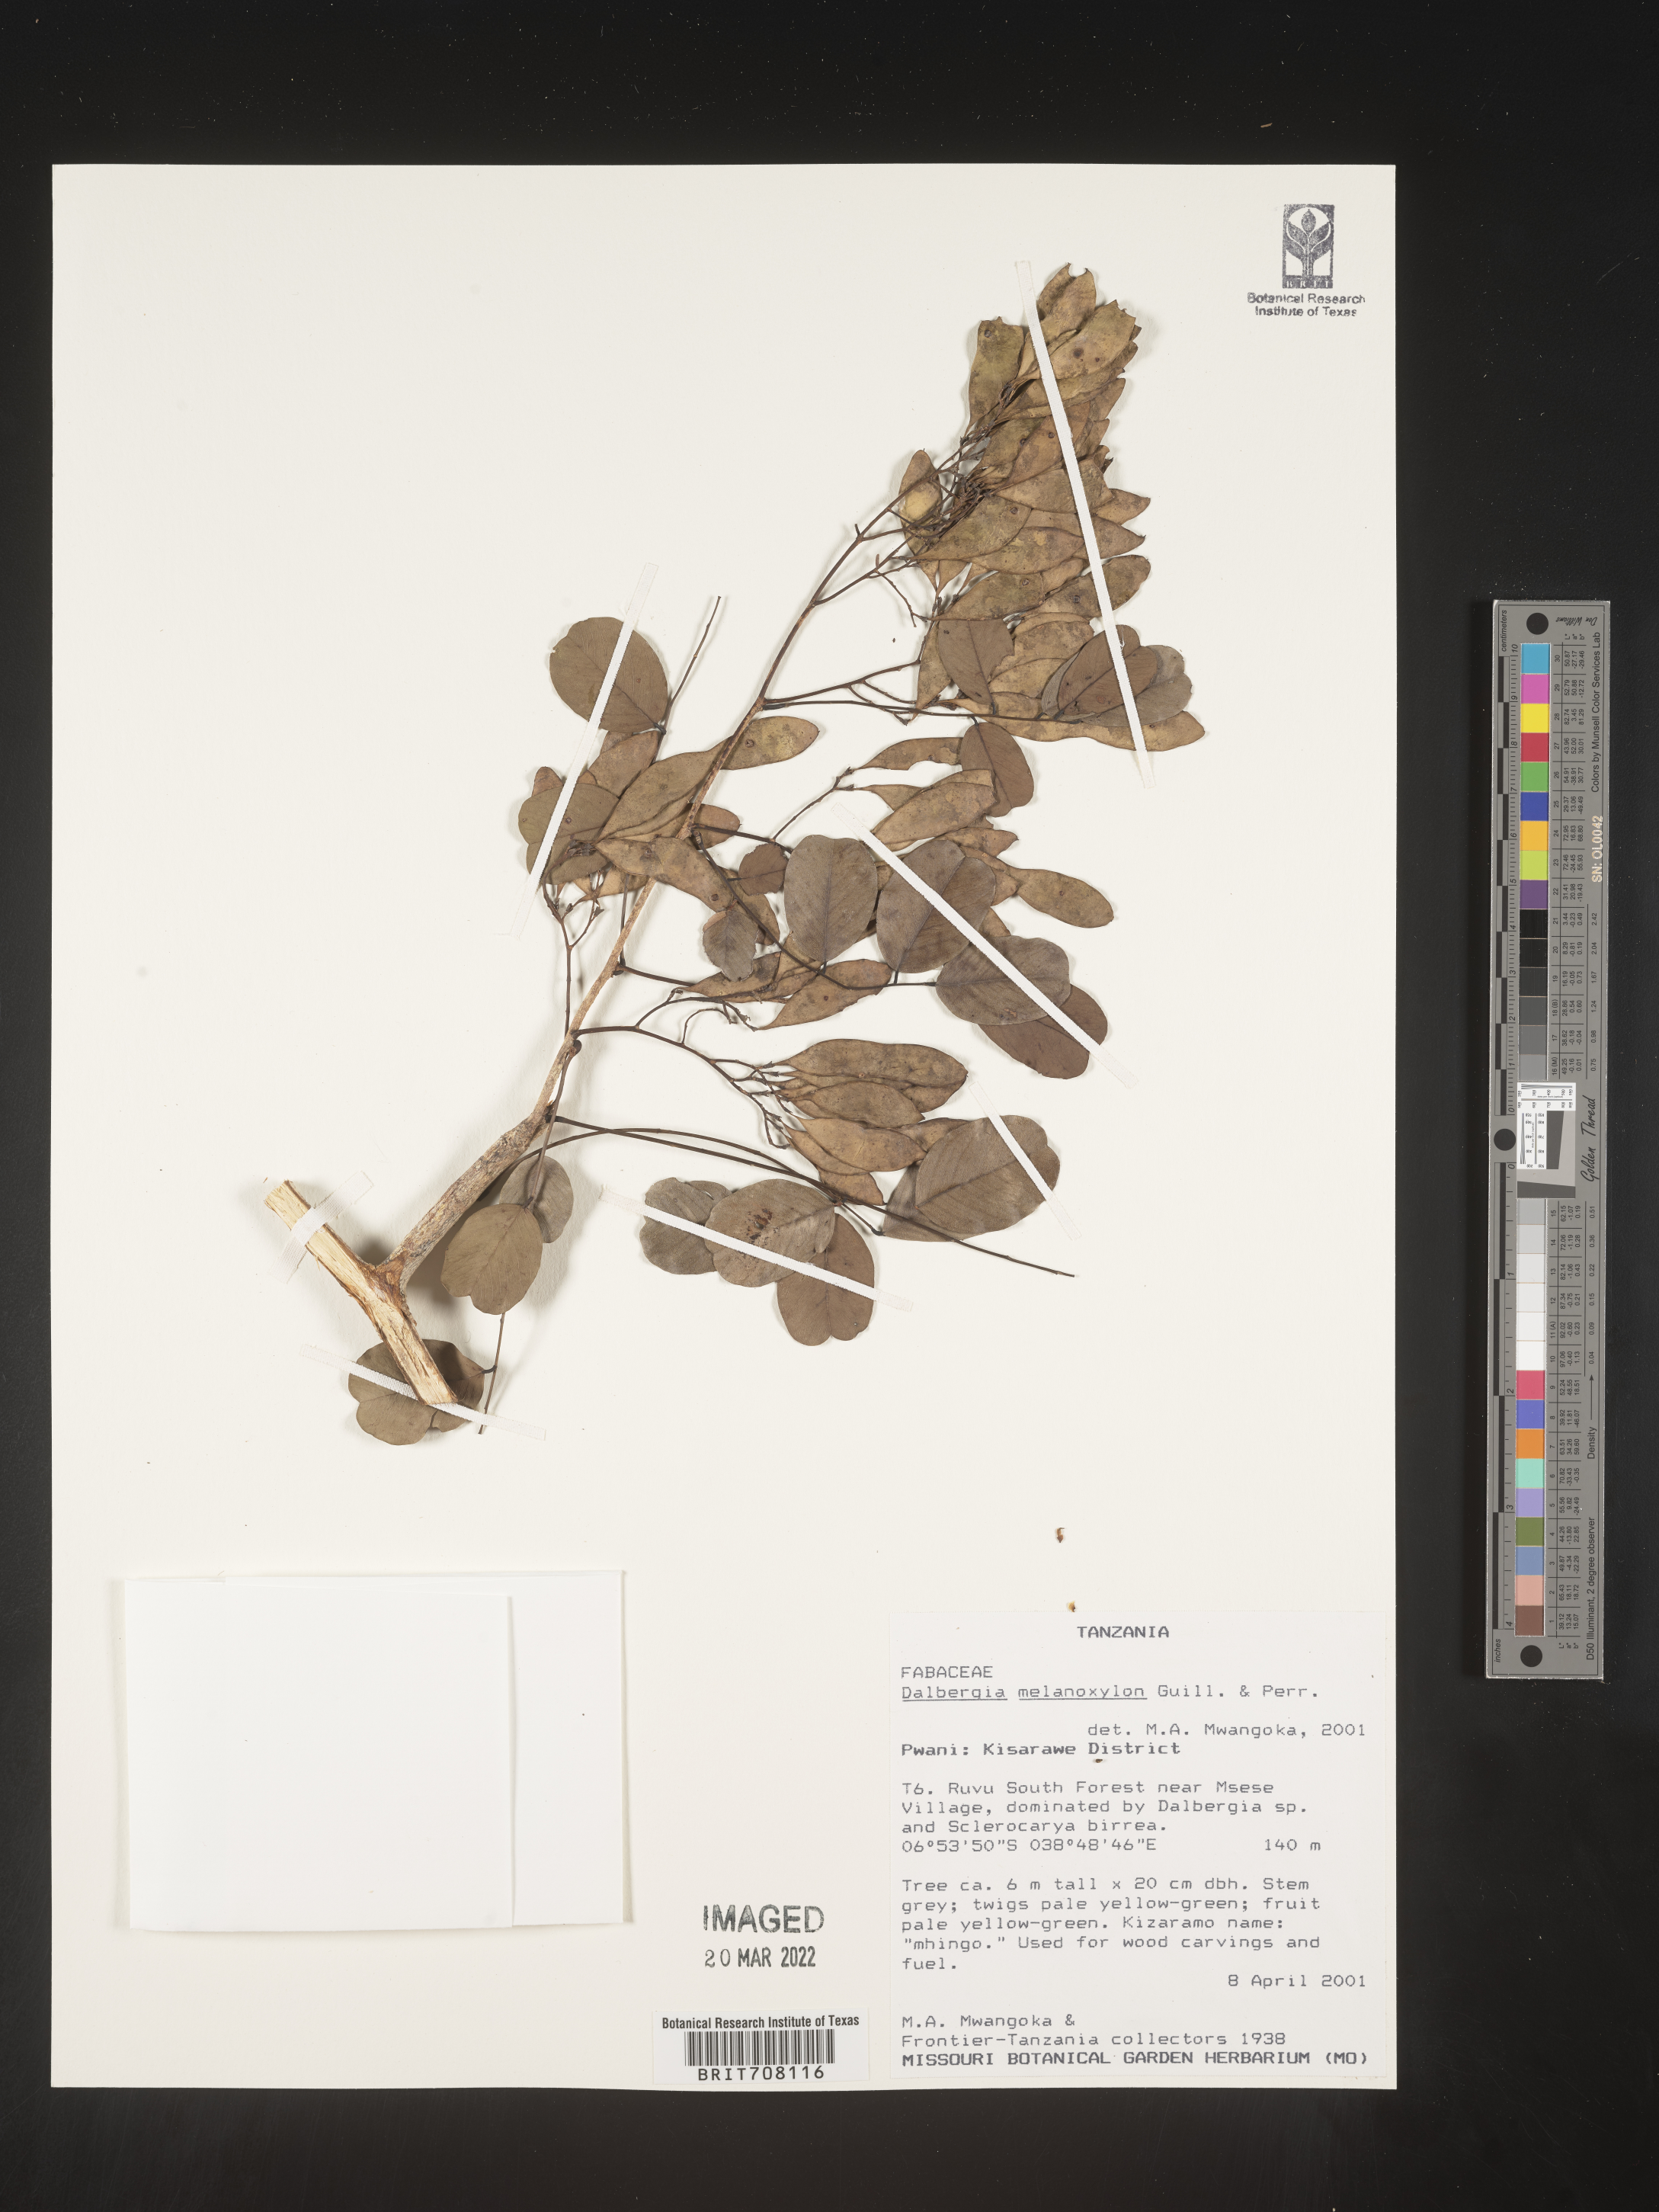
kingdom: Plantae
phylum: Tracheophyta
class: Magnoliopsida
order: Fabales
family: Fabaceae
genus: Dalbergia
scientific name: Dalbergia
